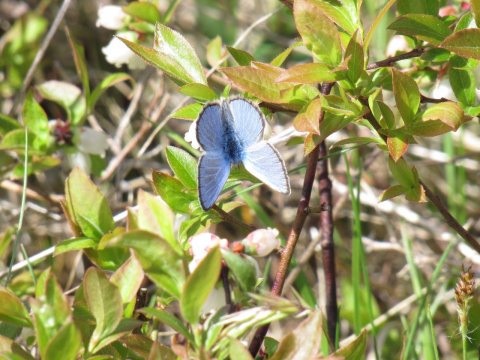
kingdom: Animalia
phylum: Arthropoda
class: Insecta
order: Lepidoptera
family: Lycaenidae
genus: Glaucopsyche
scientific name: Glaucopsyche lygdamus
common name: Silvery Blue
